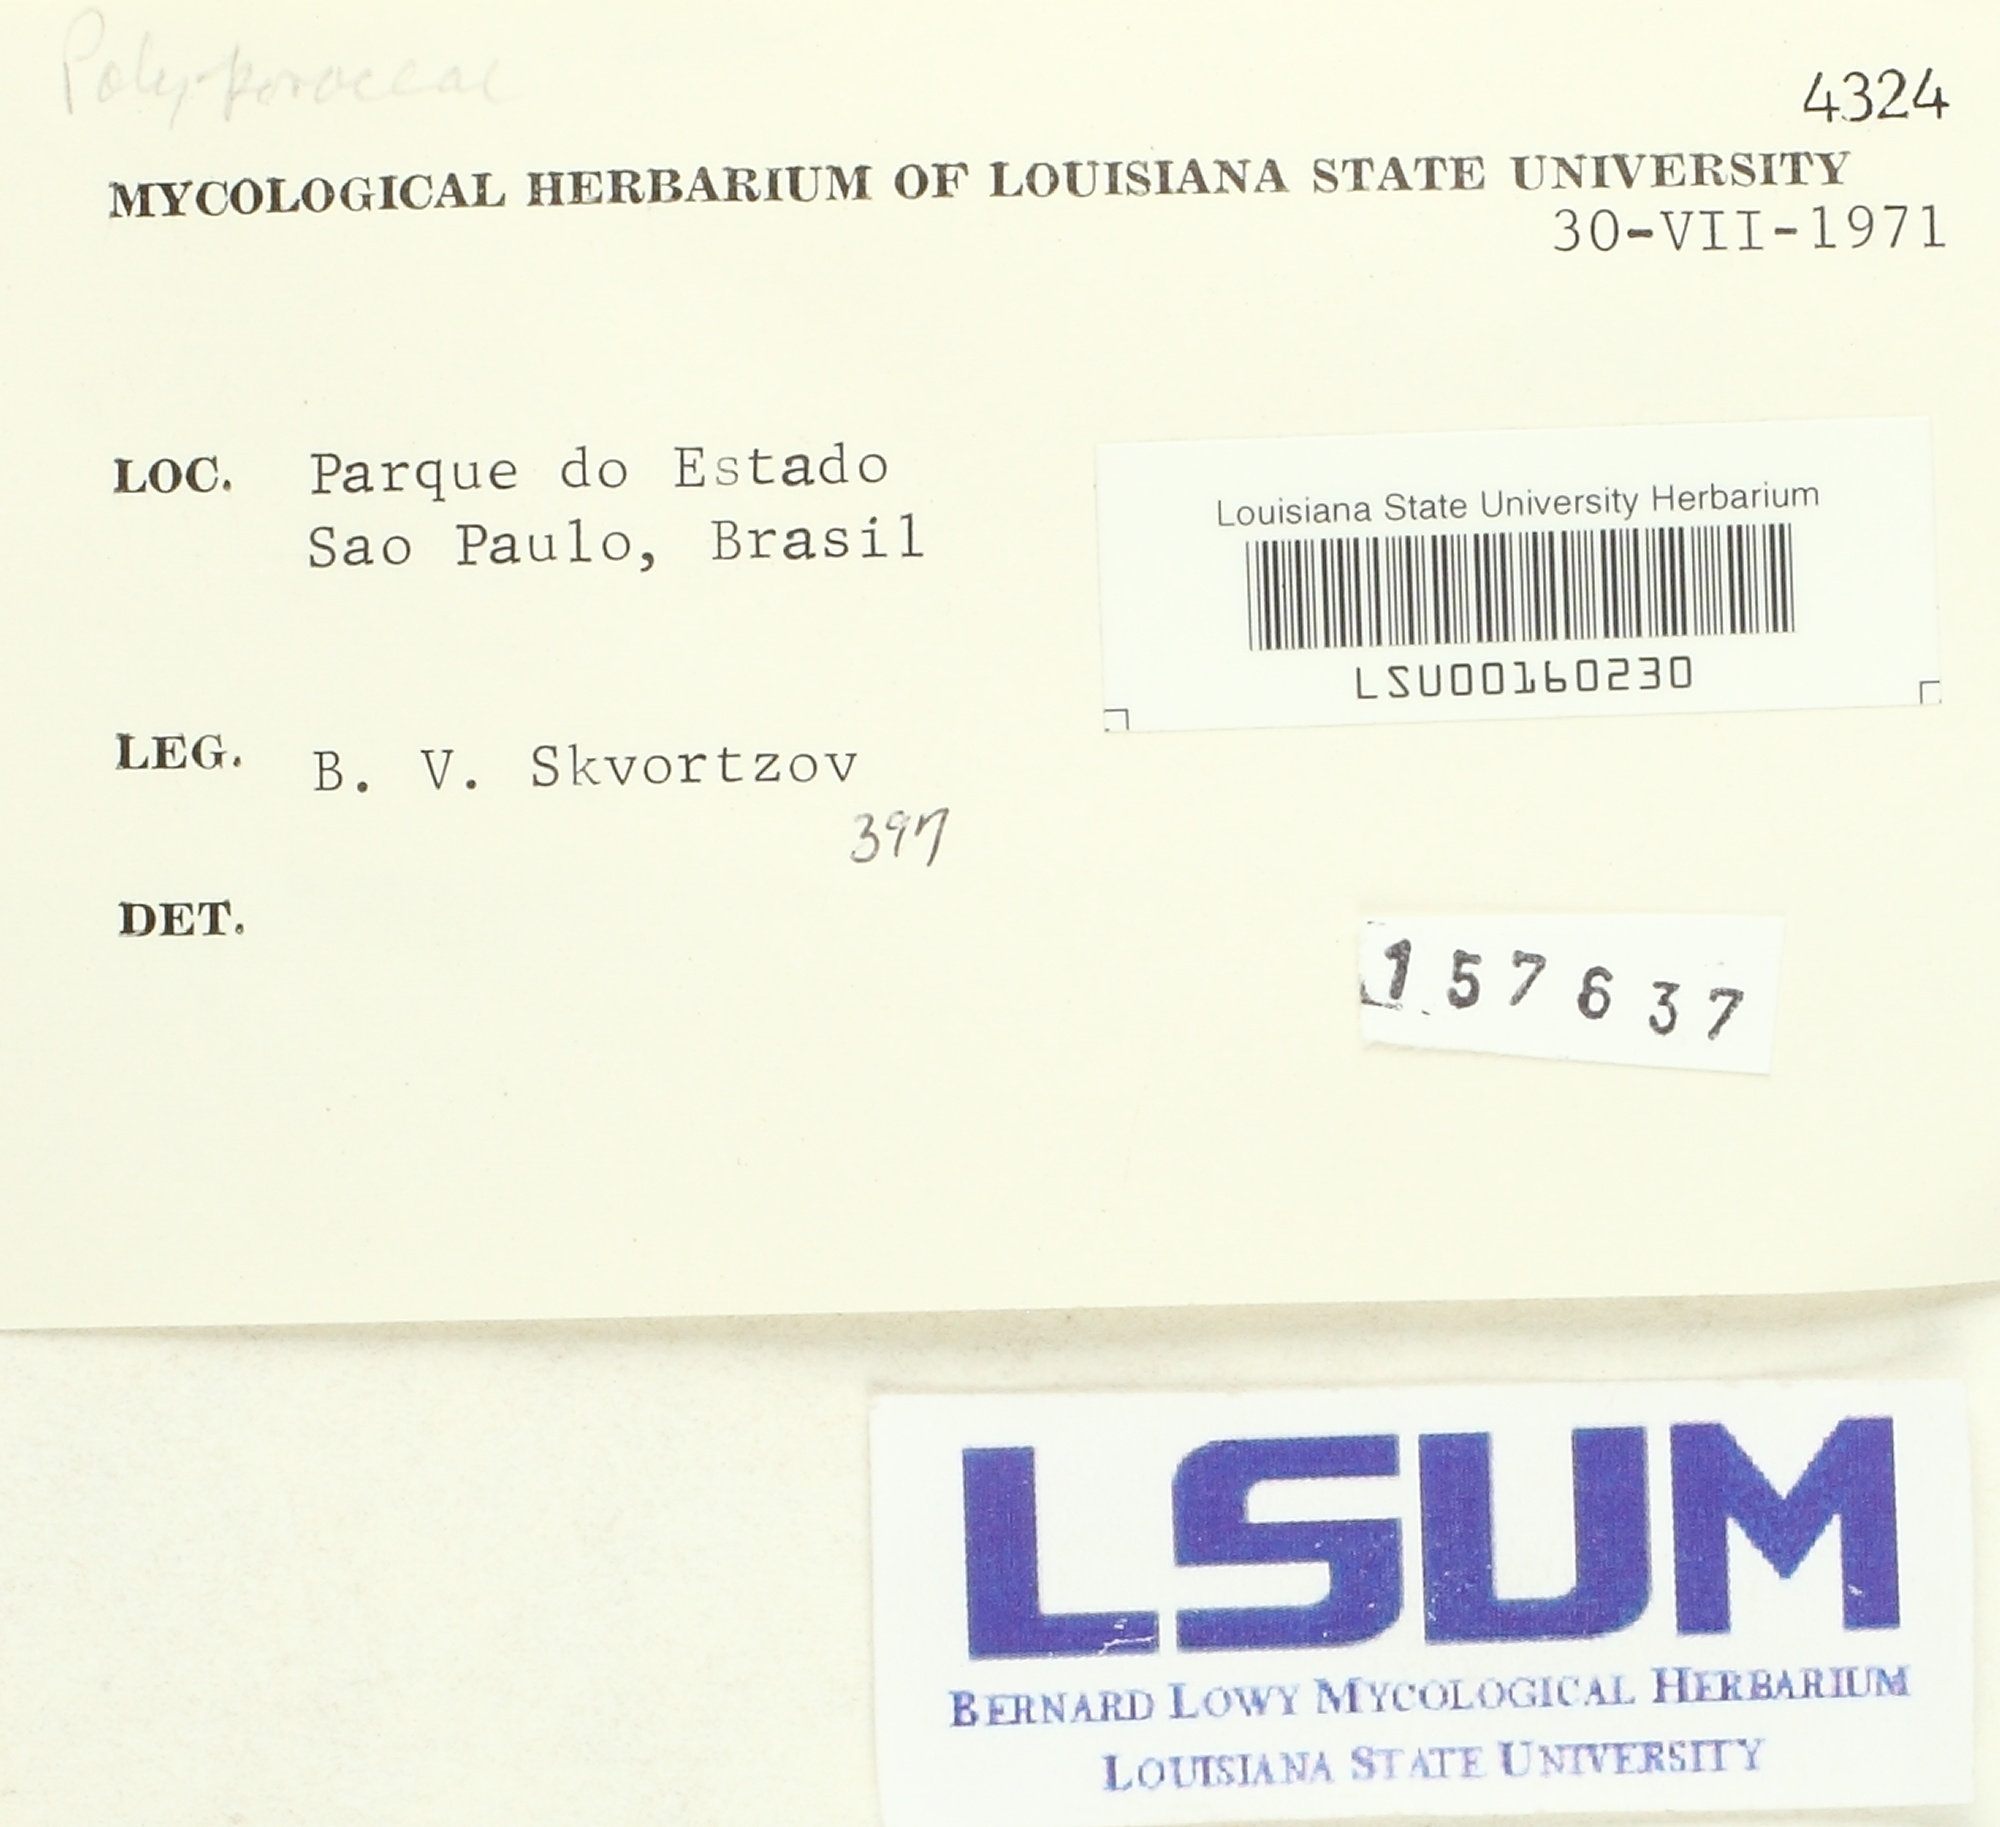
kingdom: Fungi
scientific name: Fungi
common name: Fungi
